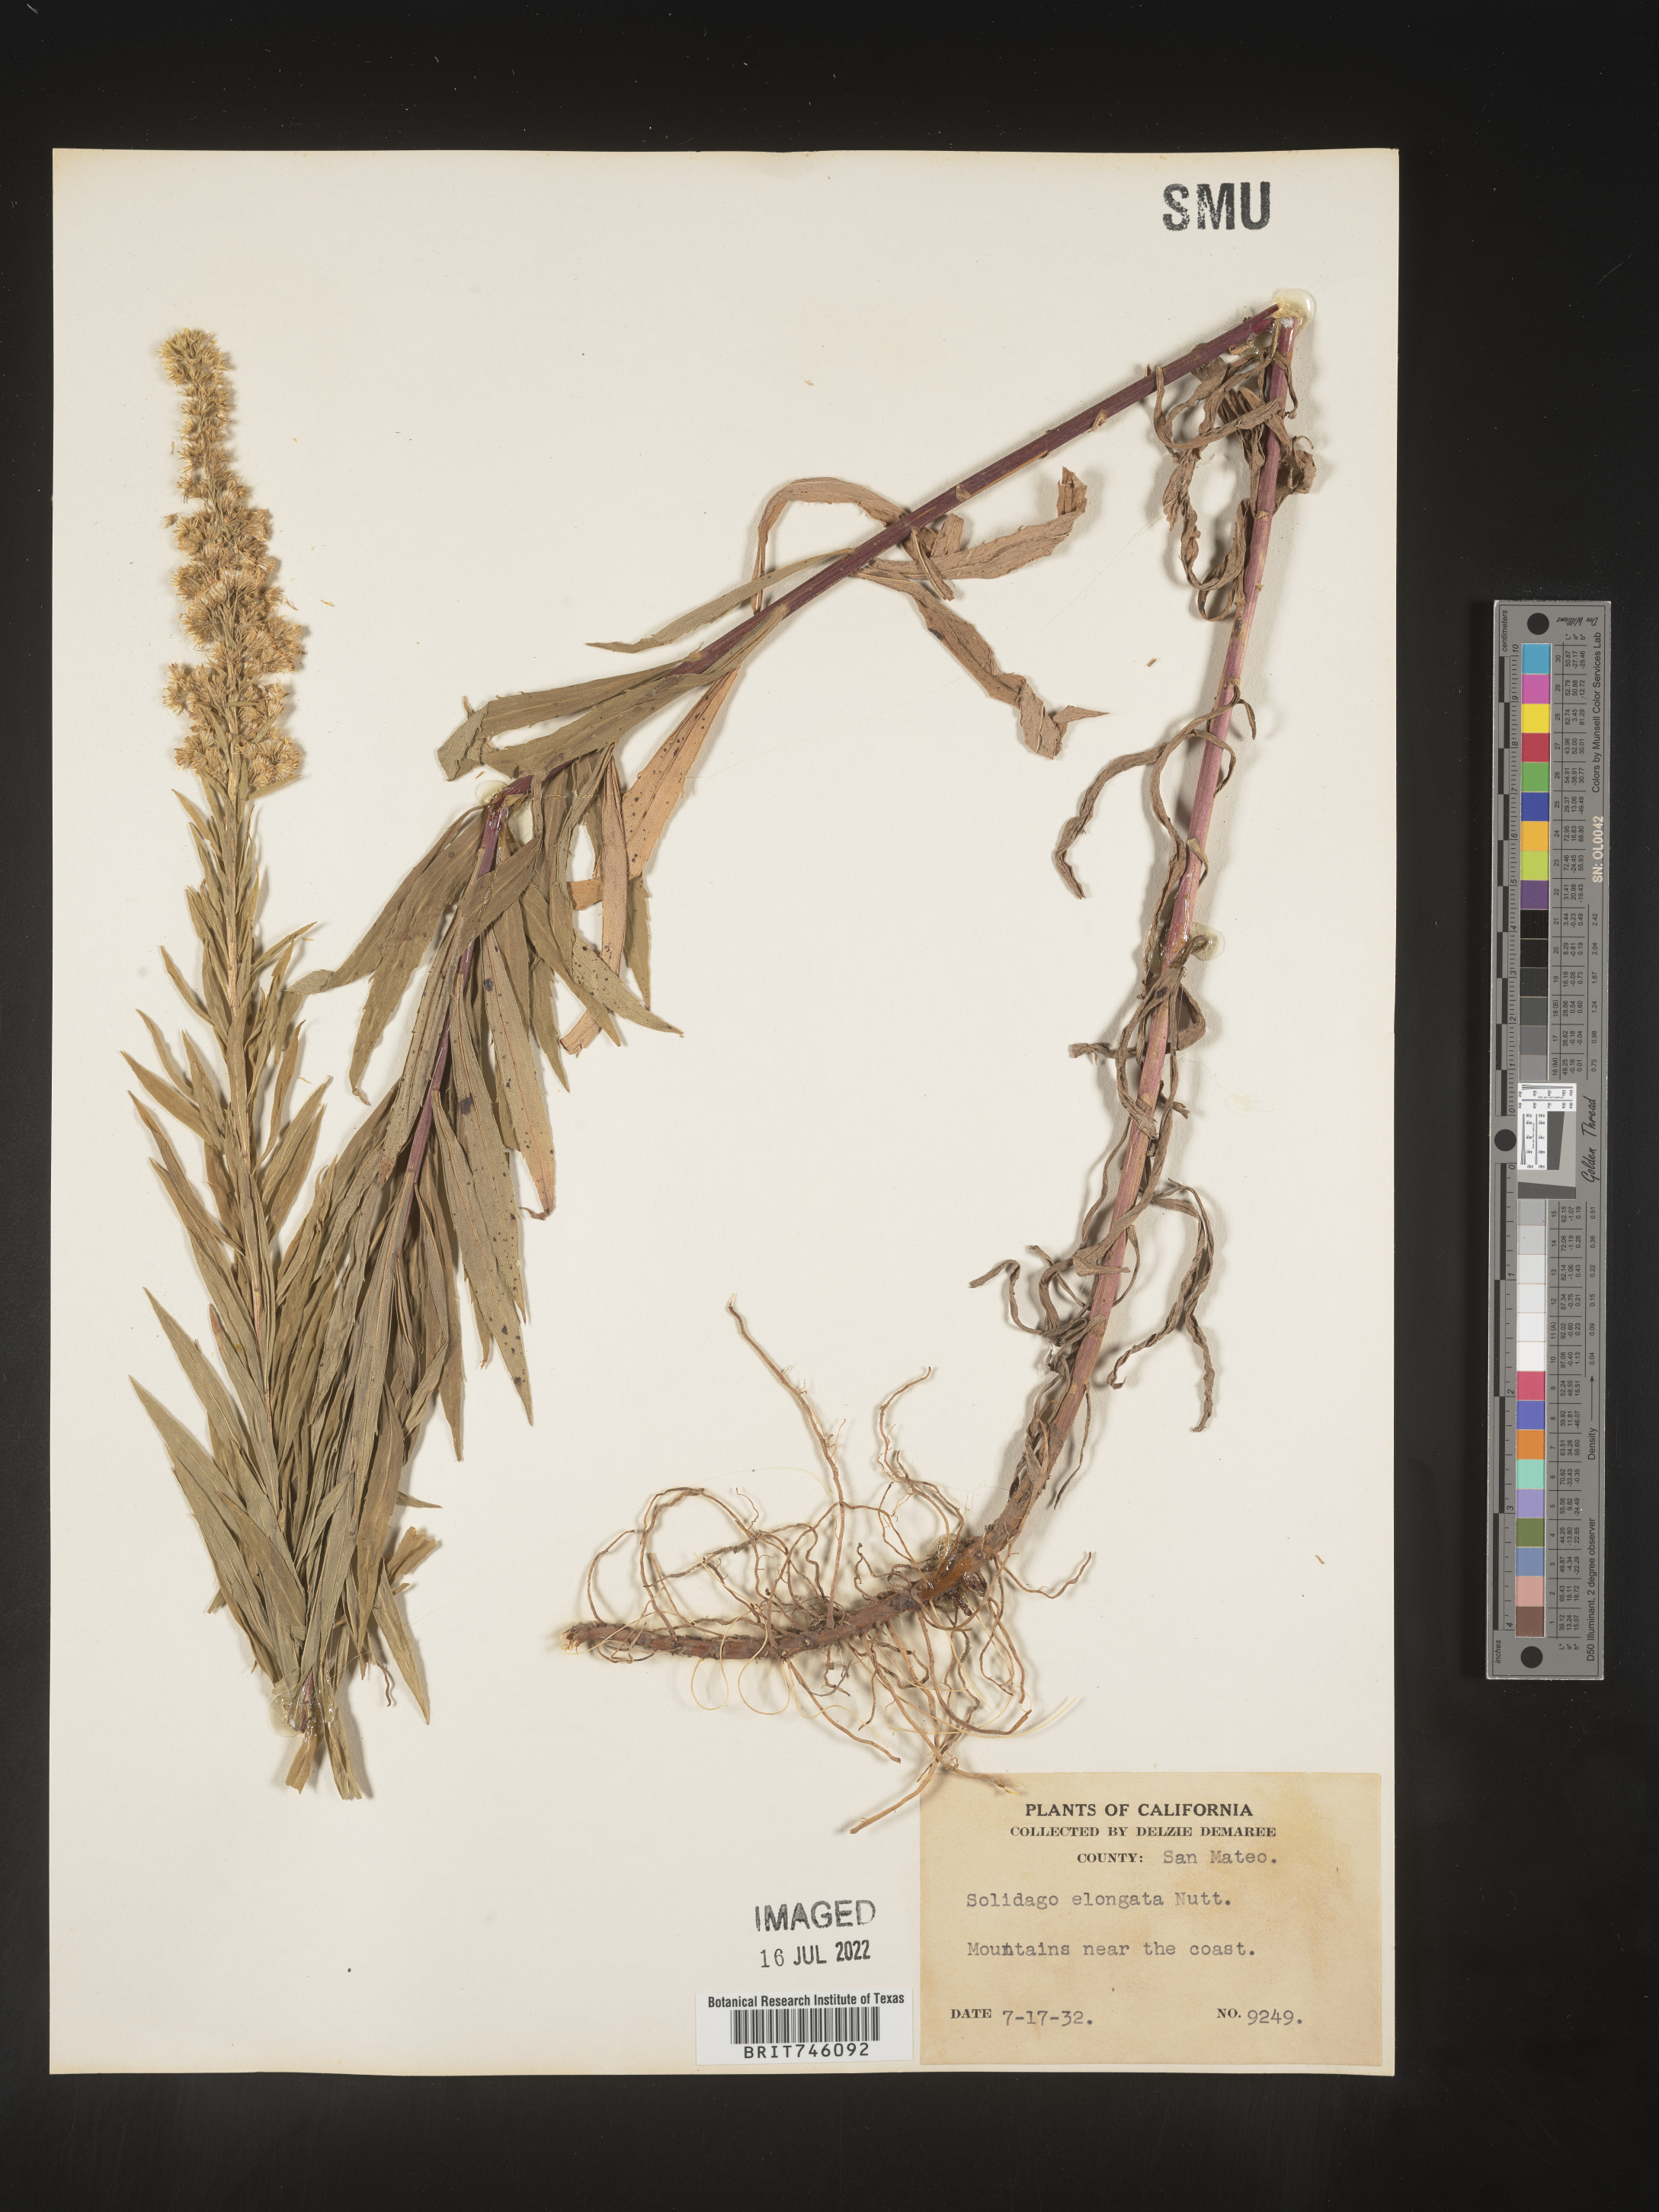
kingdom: Plantae
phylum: Tracheophyta
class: Magnoliopsida
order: Asterales
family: Asteraceae
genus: Solidago
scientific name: Solidago elongata
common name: Cascade canada goldenrod
